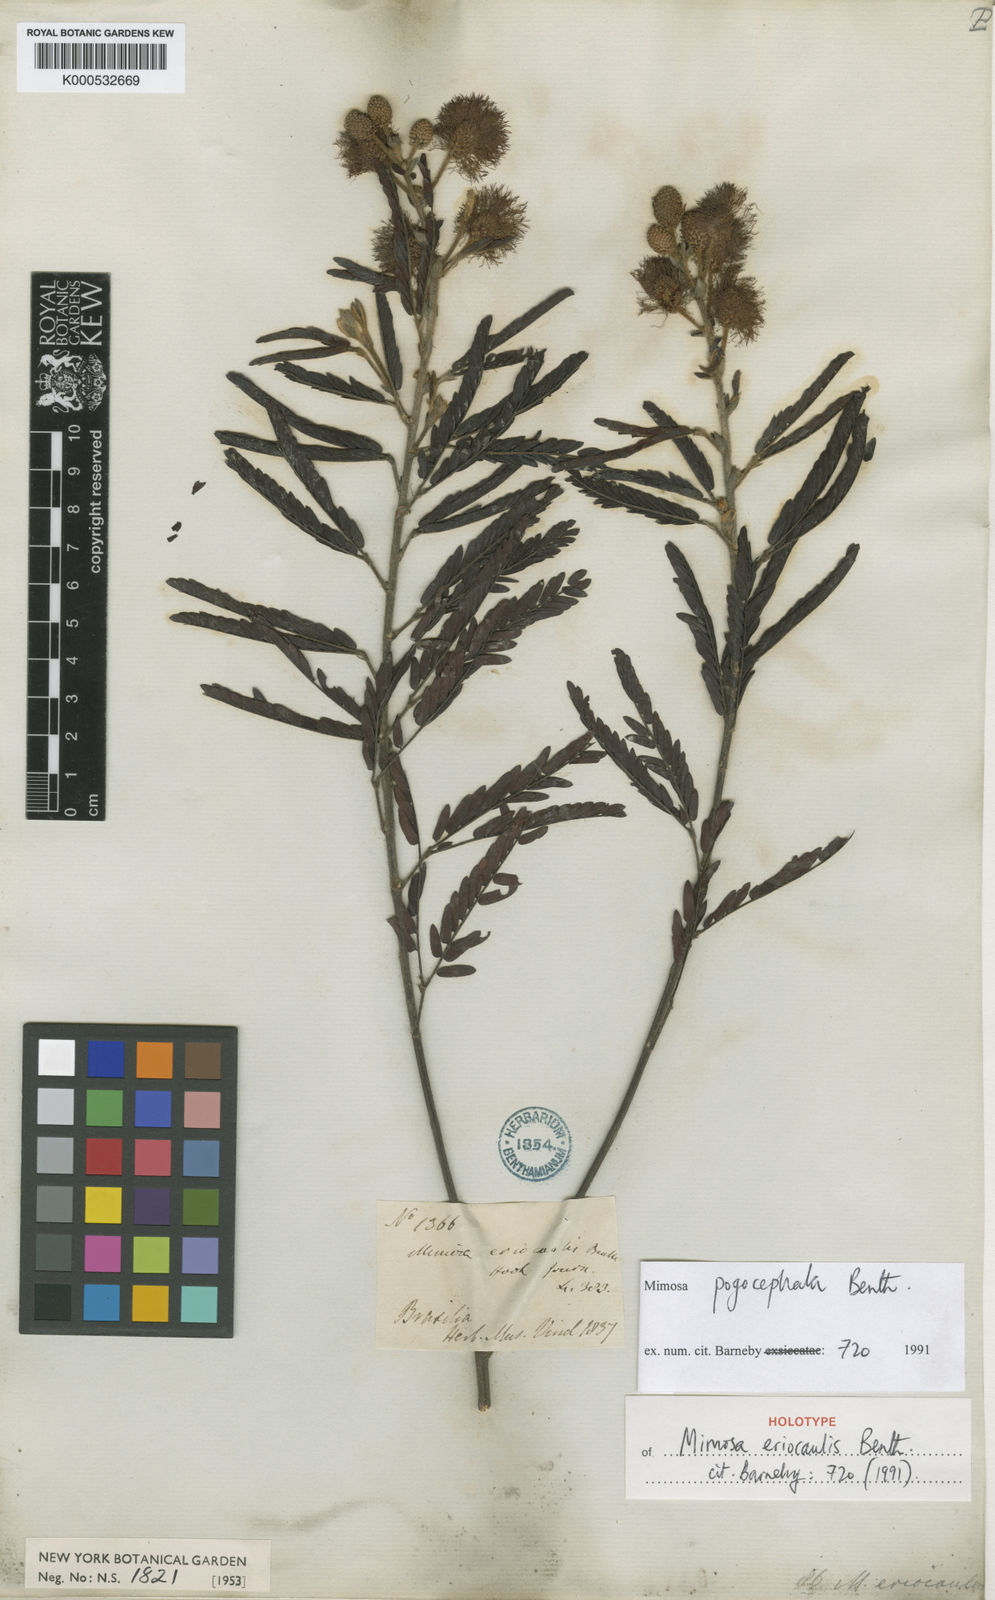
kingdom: Plantae
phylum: Tracheophyta
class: Magnoliopsida
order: Fabales
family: Fabaceae
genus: Mimosa
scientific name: Mimosa pogonoclada
